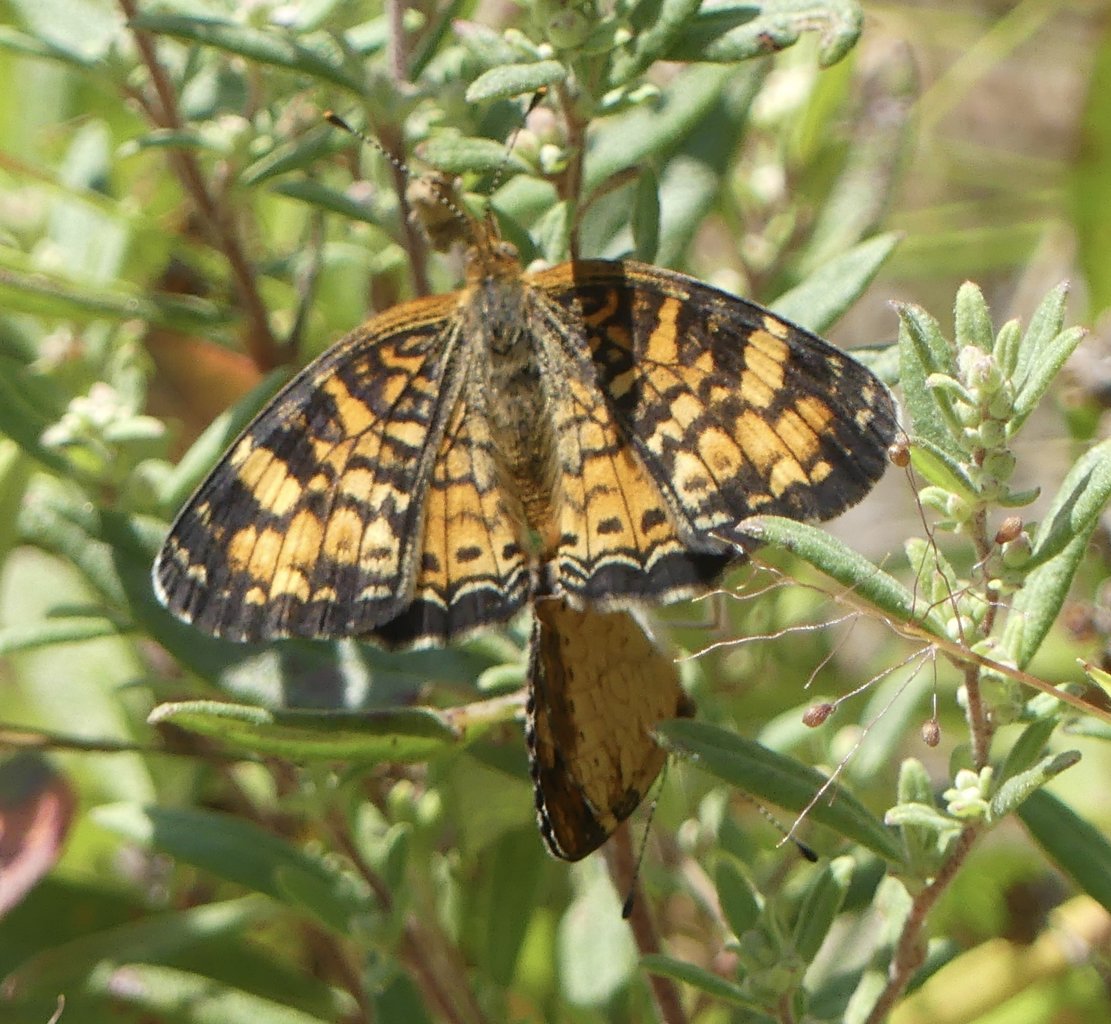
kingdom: Animalia
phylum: Arthropoda
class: Insecta
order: Lepidoptera
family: Nymphalidae
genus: Phyciodes
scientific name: Phyciodes tharos
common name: Pearl Crescent
